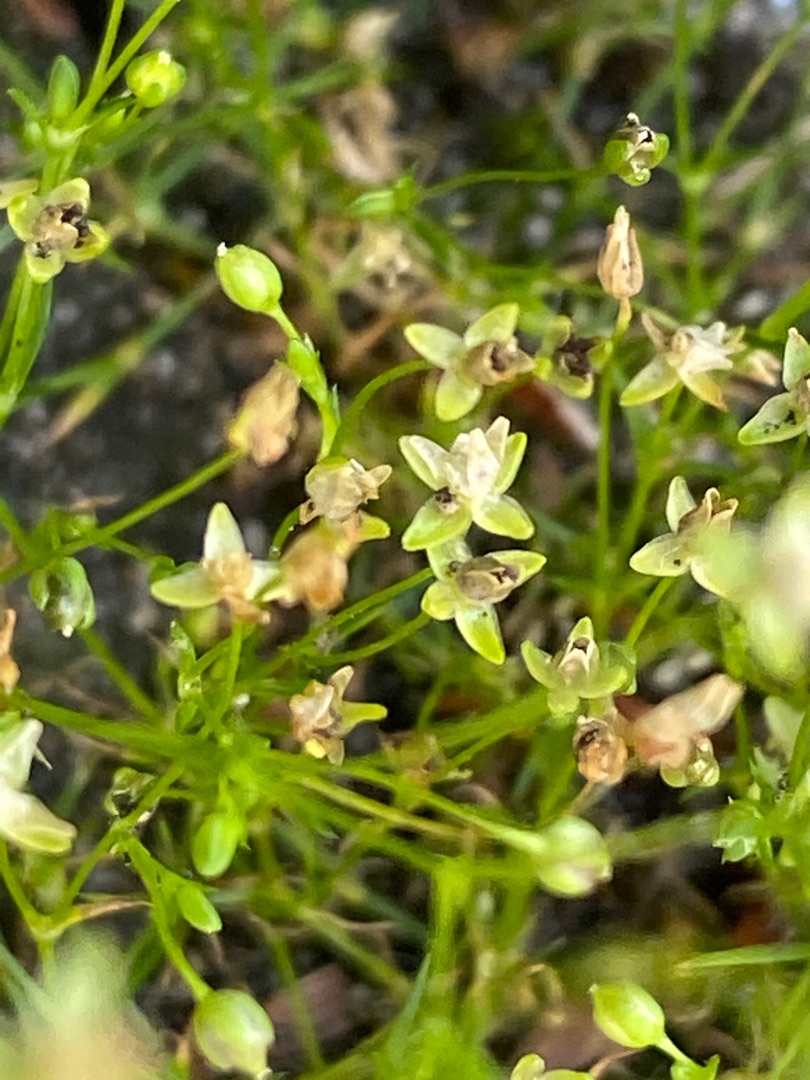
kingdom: Plantae
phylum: Tracheophyta
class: Magnoliopsida
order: Caryophyllales
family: Caryophyllaceae
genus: Sagina
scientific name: Sagina micropetala
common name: Håret firling
